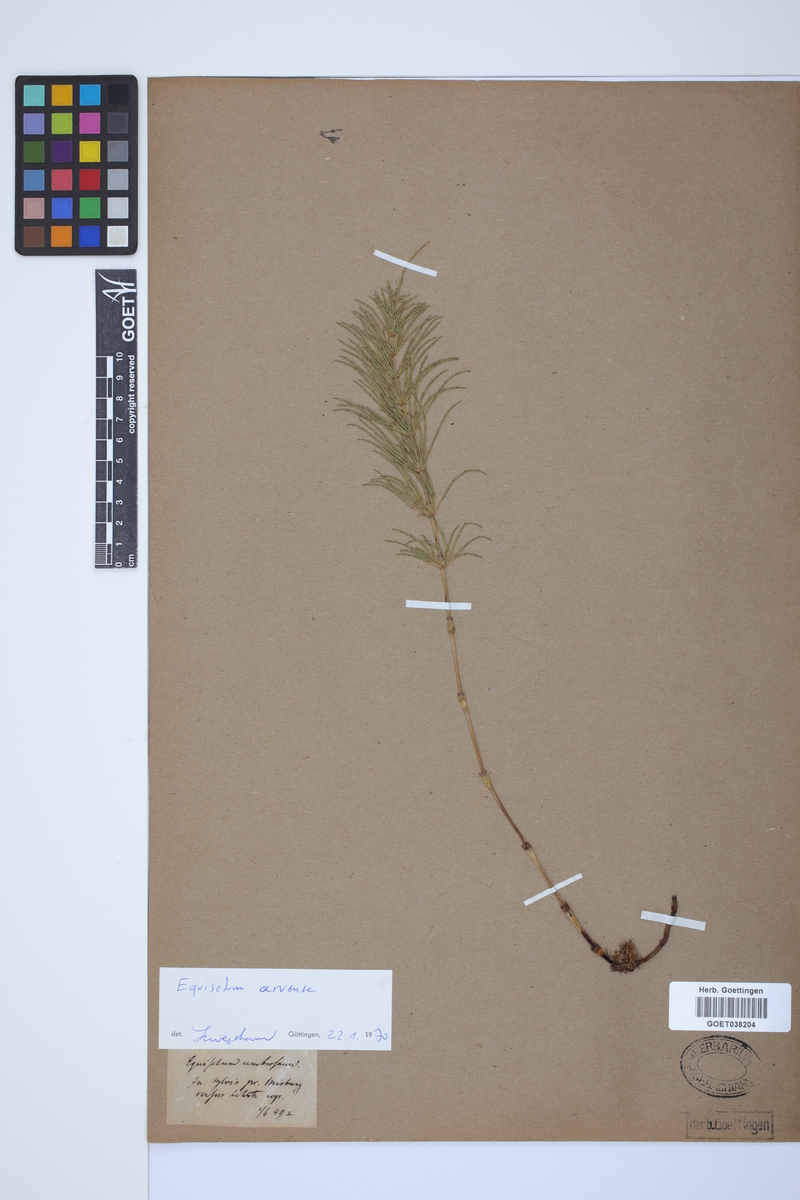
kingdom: Plantae
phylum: Tracheophyta
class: Polypodiopsida
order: Equisetales
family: Equisetaceae
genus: Equisetum
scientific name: Equisetum arvense
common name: Field horsetail
